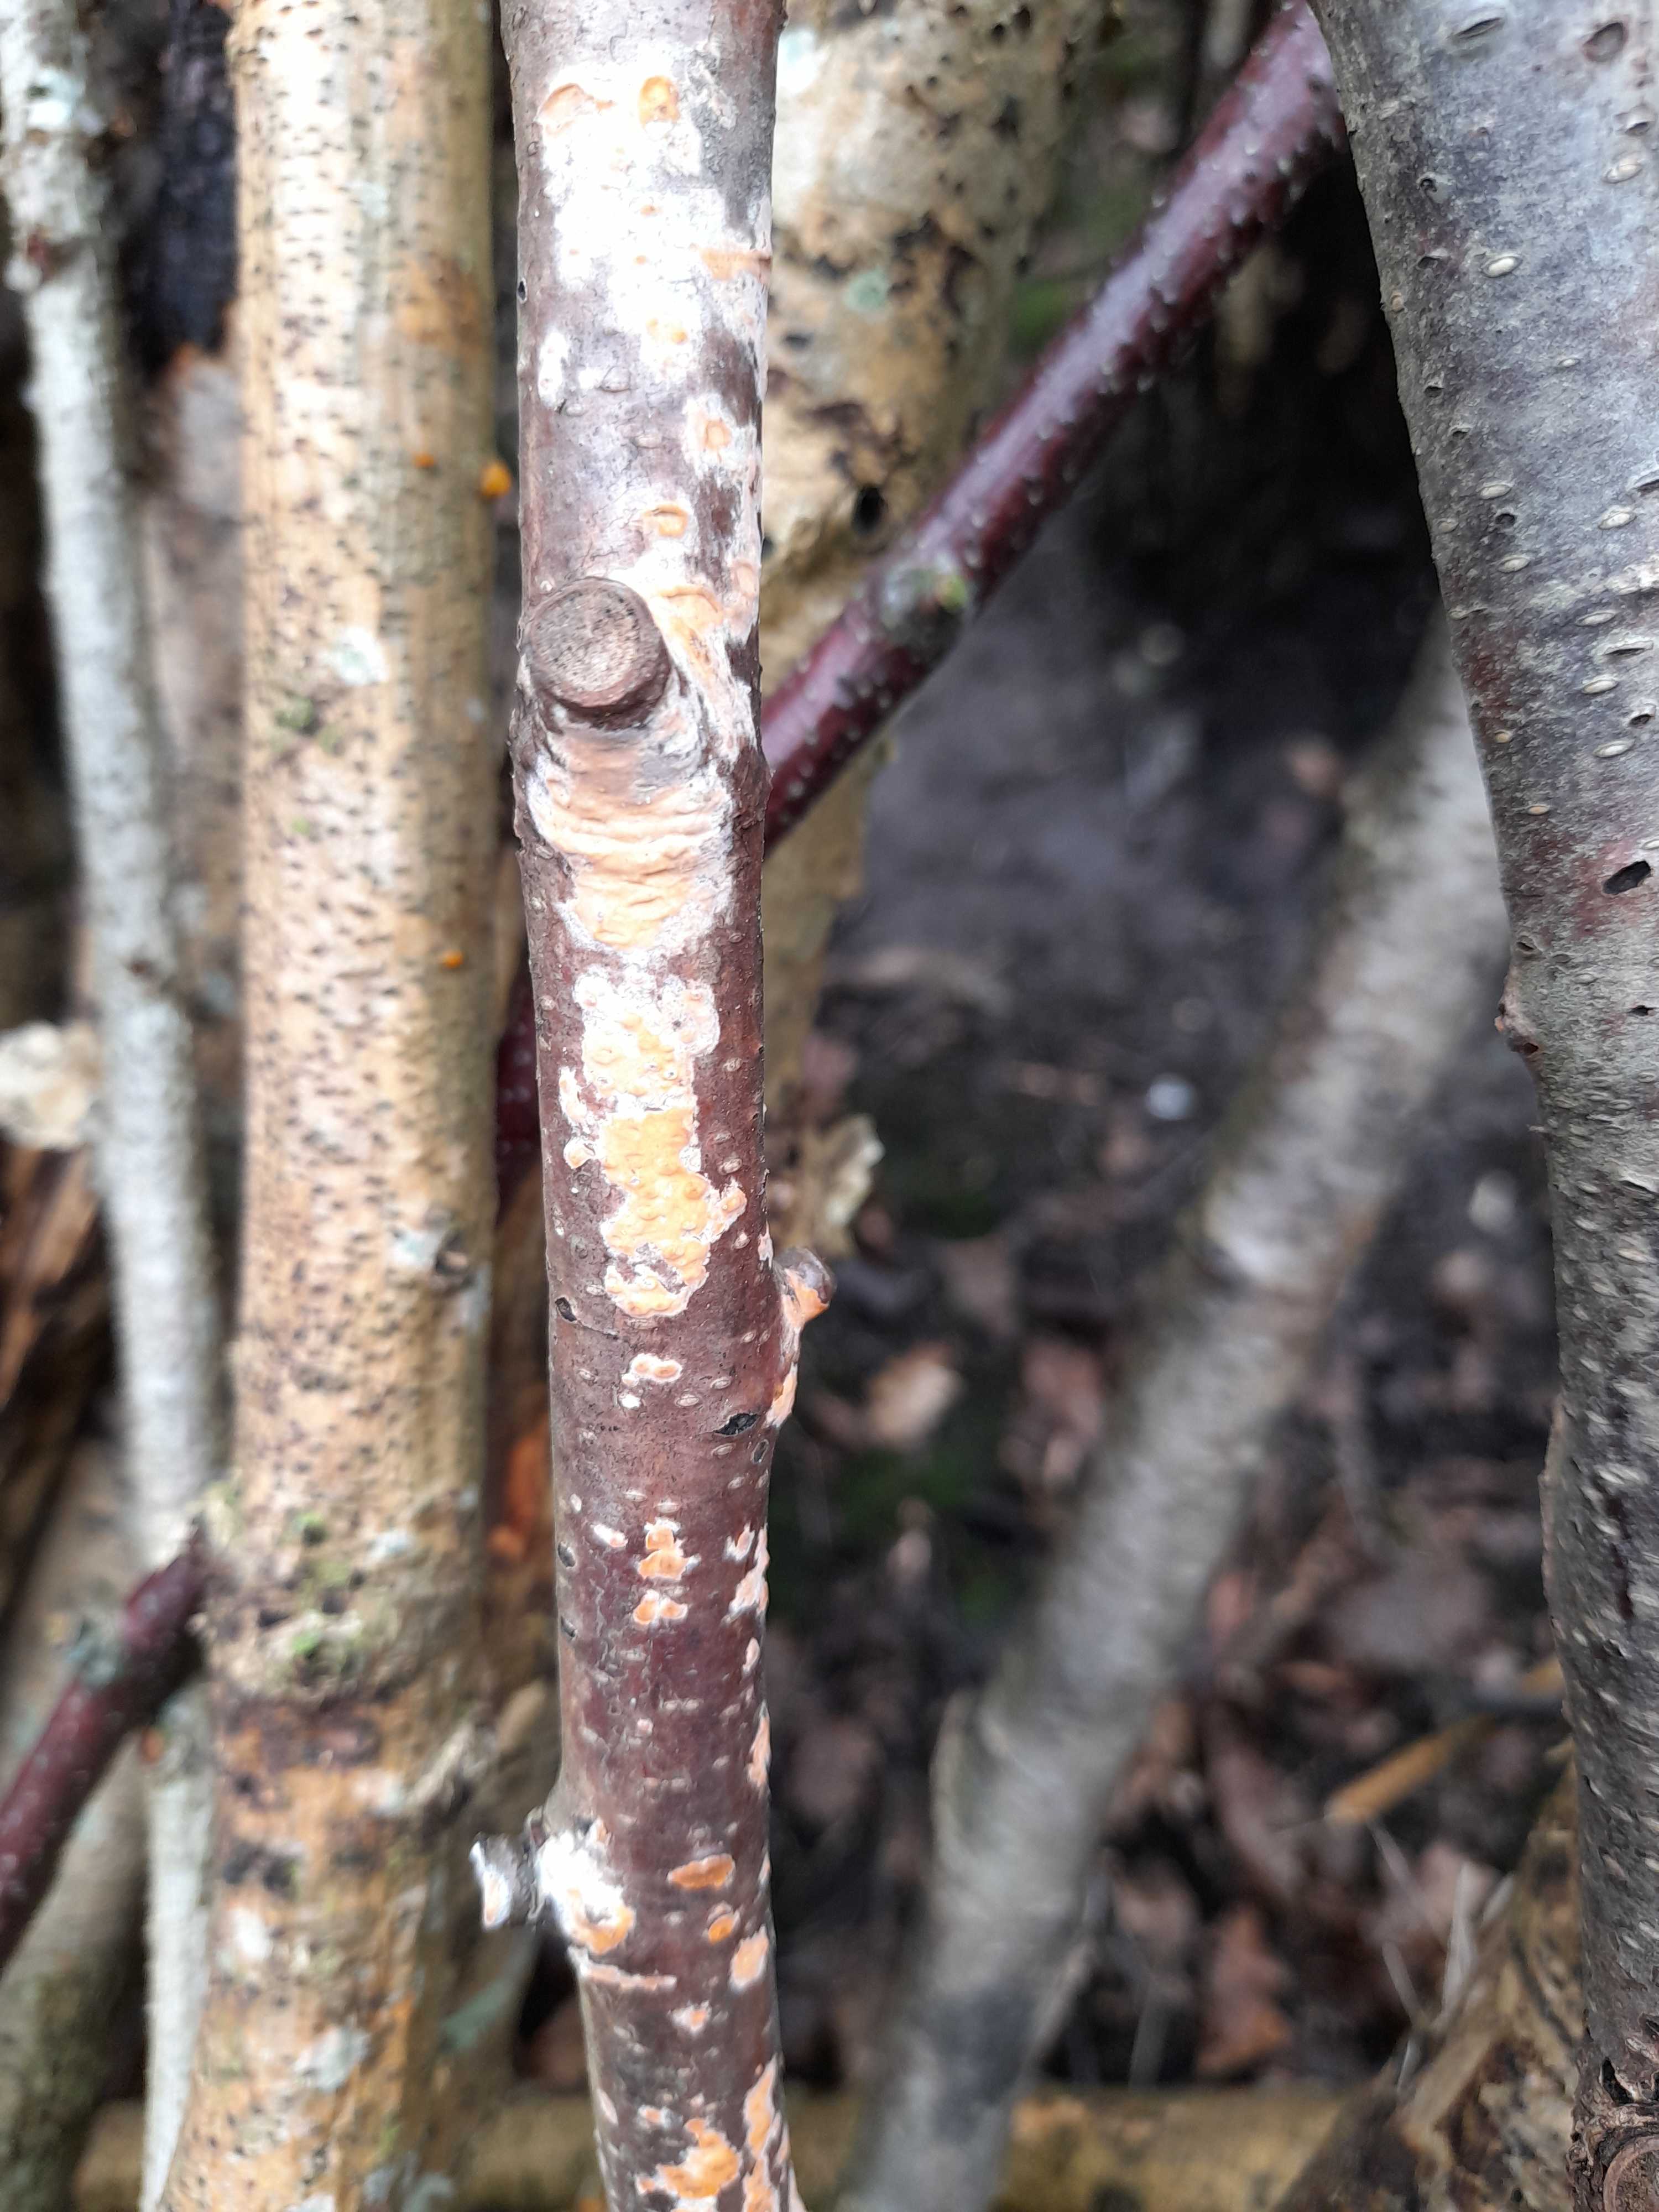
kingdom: Fungi
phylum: Basidiomycota
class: Agaricomycetes
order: Russulales
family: Peniophoraceae
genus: Peniophora
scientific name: Peniophora incarnata
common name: laksefarvet voksskind
